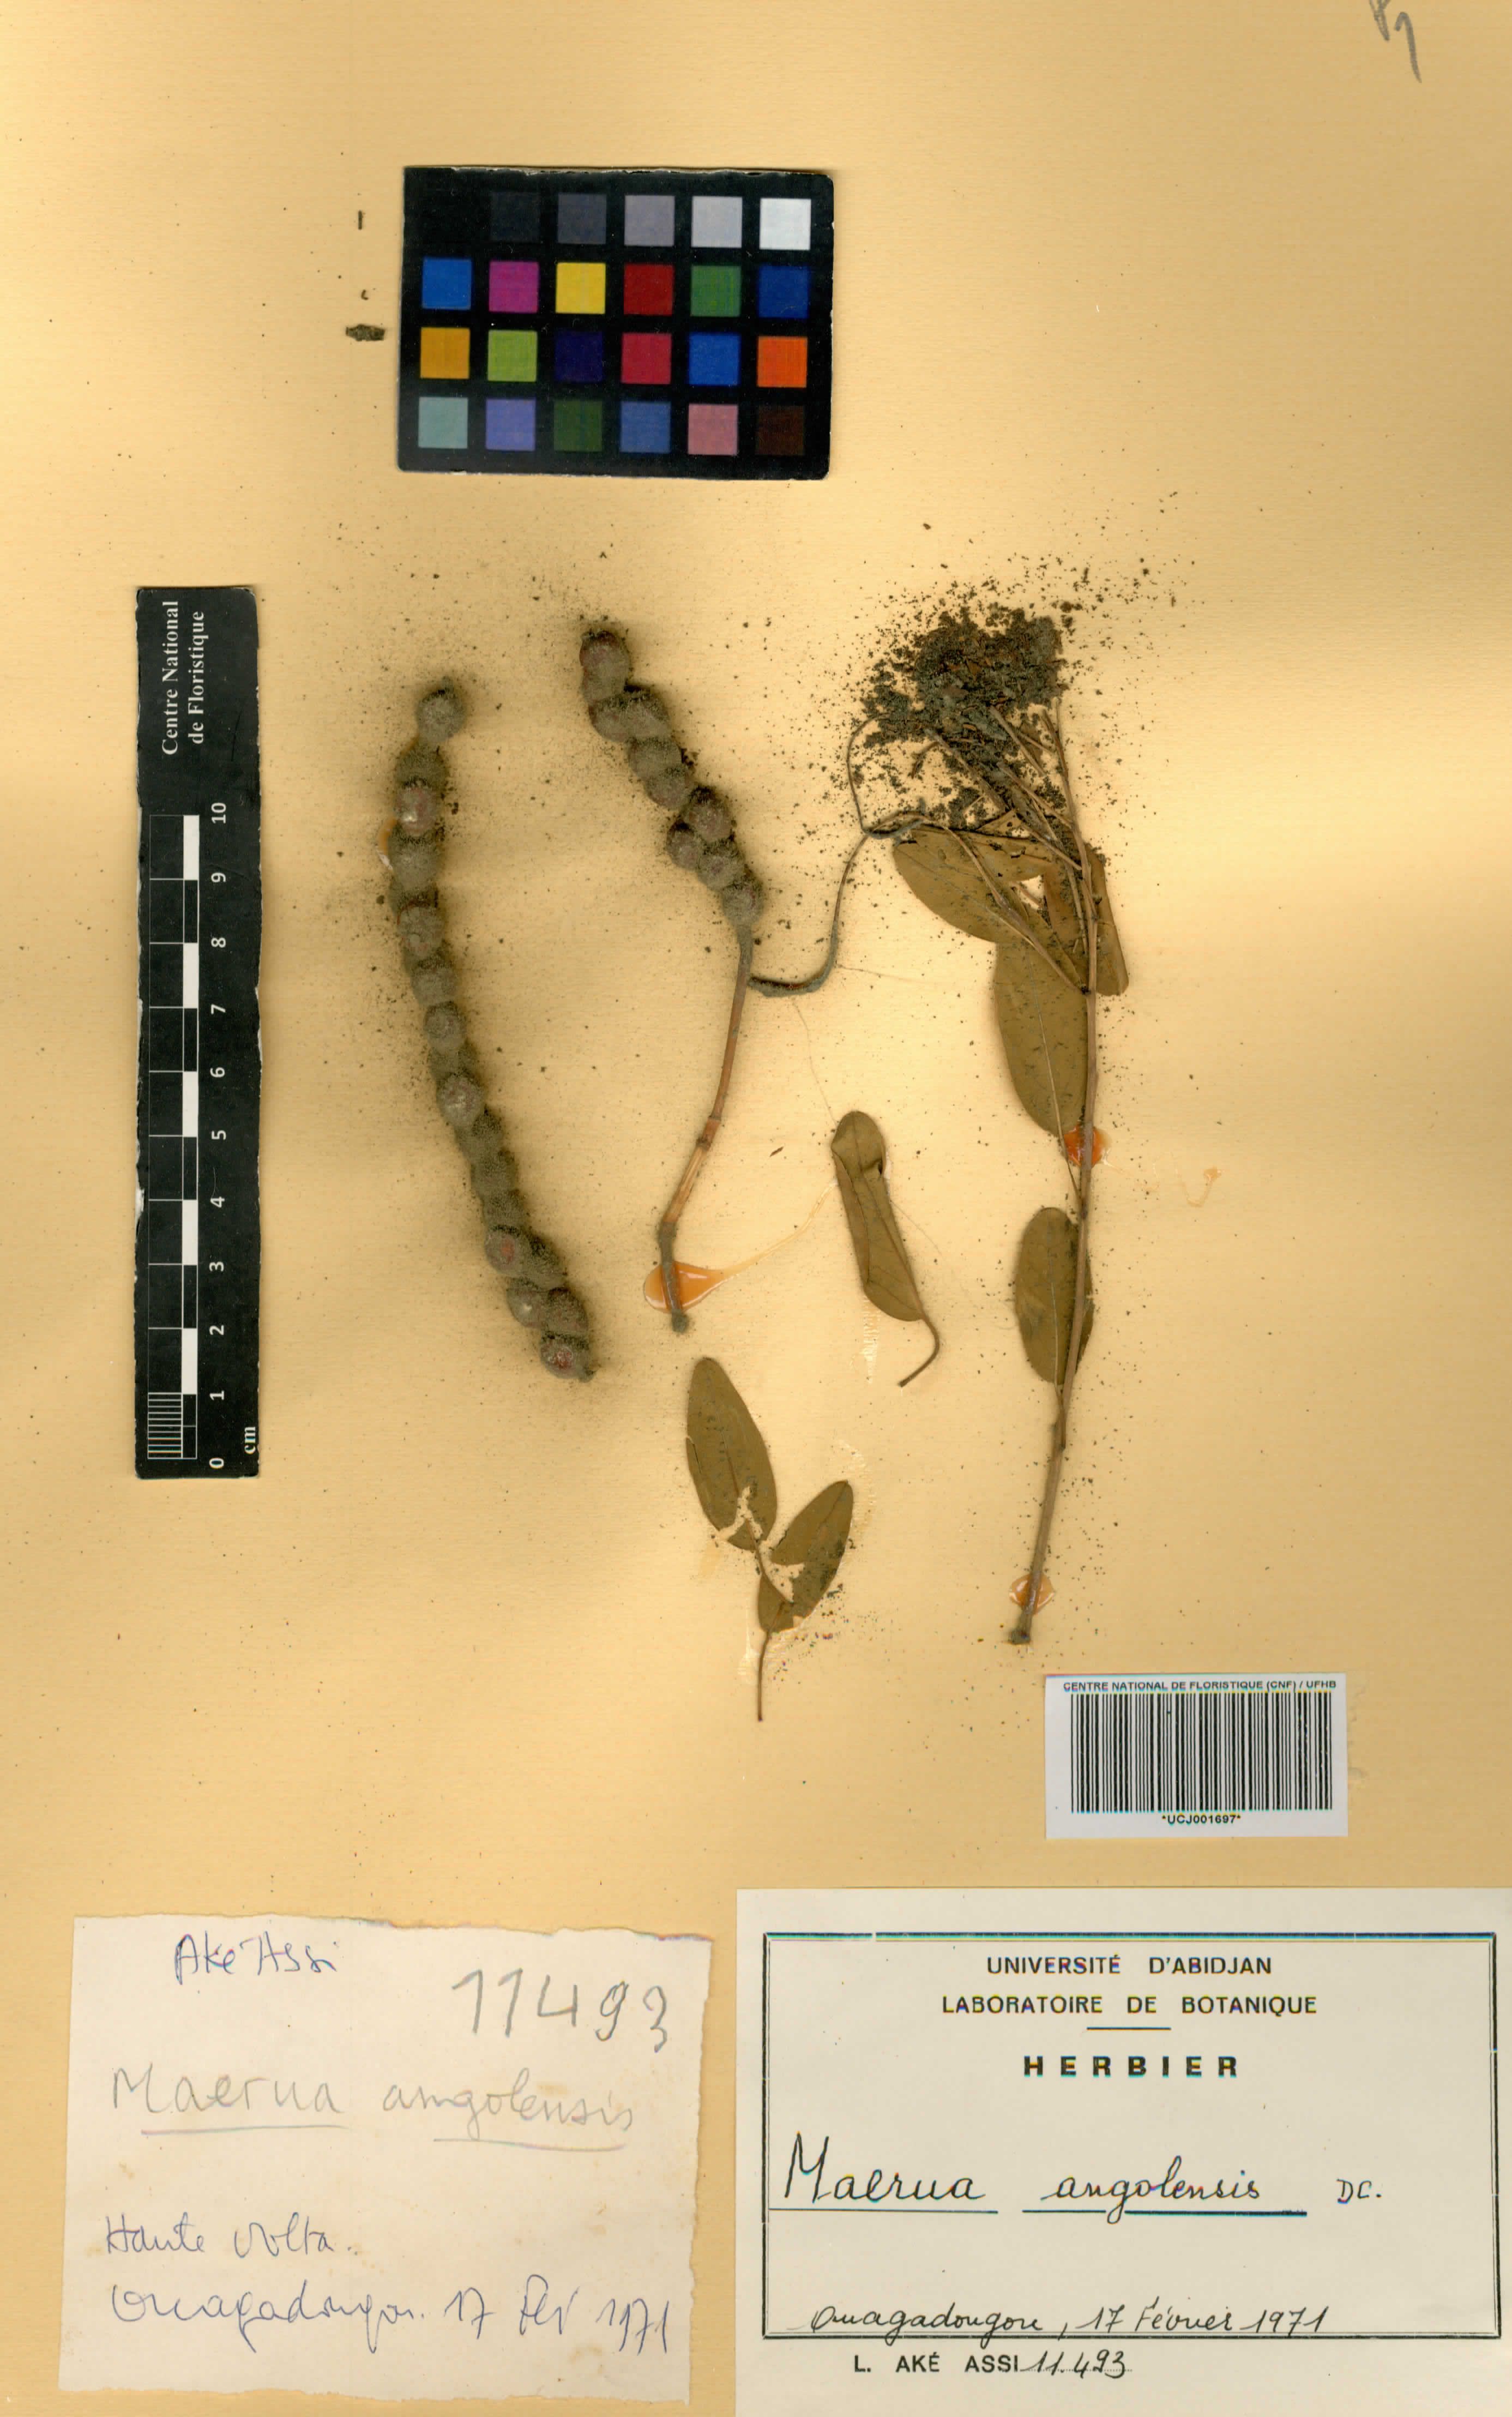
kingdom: Plantae
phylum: Tracheophyta
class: Magnoliopsida
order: Brassicales
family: Capparaceae
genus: Maerua
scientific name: Maerua angolensis
